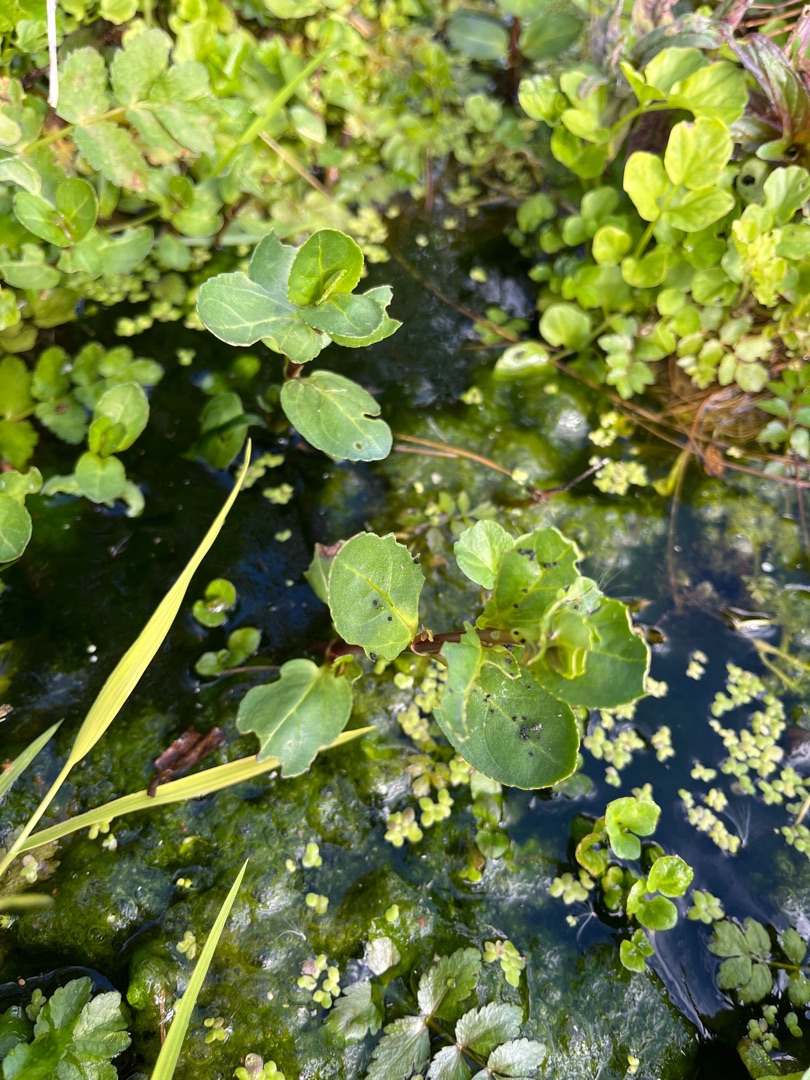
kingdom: Plantae
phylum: Tracheophyta
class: Magnoliopsida
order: Lamiales
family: Plantaginaceae
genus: Veronica
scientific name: Veronica beccabunga
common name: Tykbladet ærenpris
